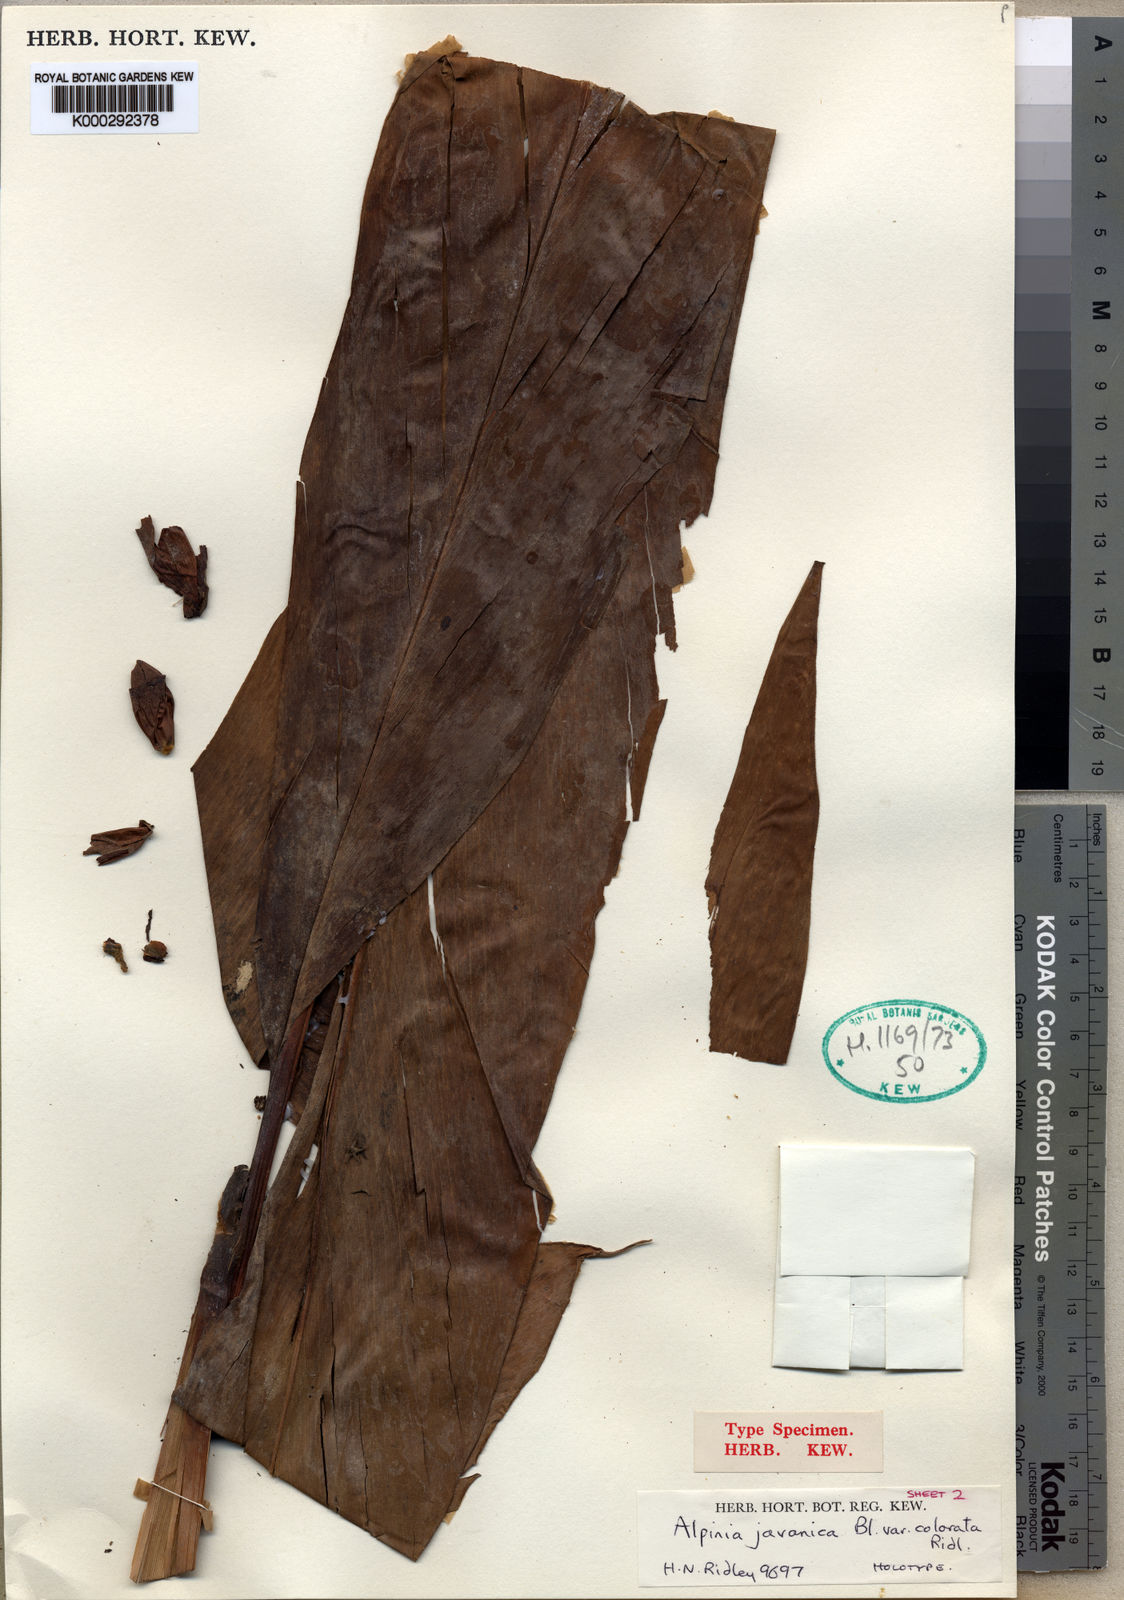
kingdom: Plantae
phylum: Tracheophyta
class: Liliopsida
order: Zingiberales
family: Zingiberaceae
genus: Etlingera
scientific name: Etlingera elatior
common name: Philippine waxflower
